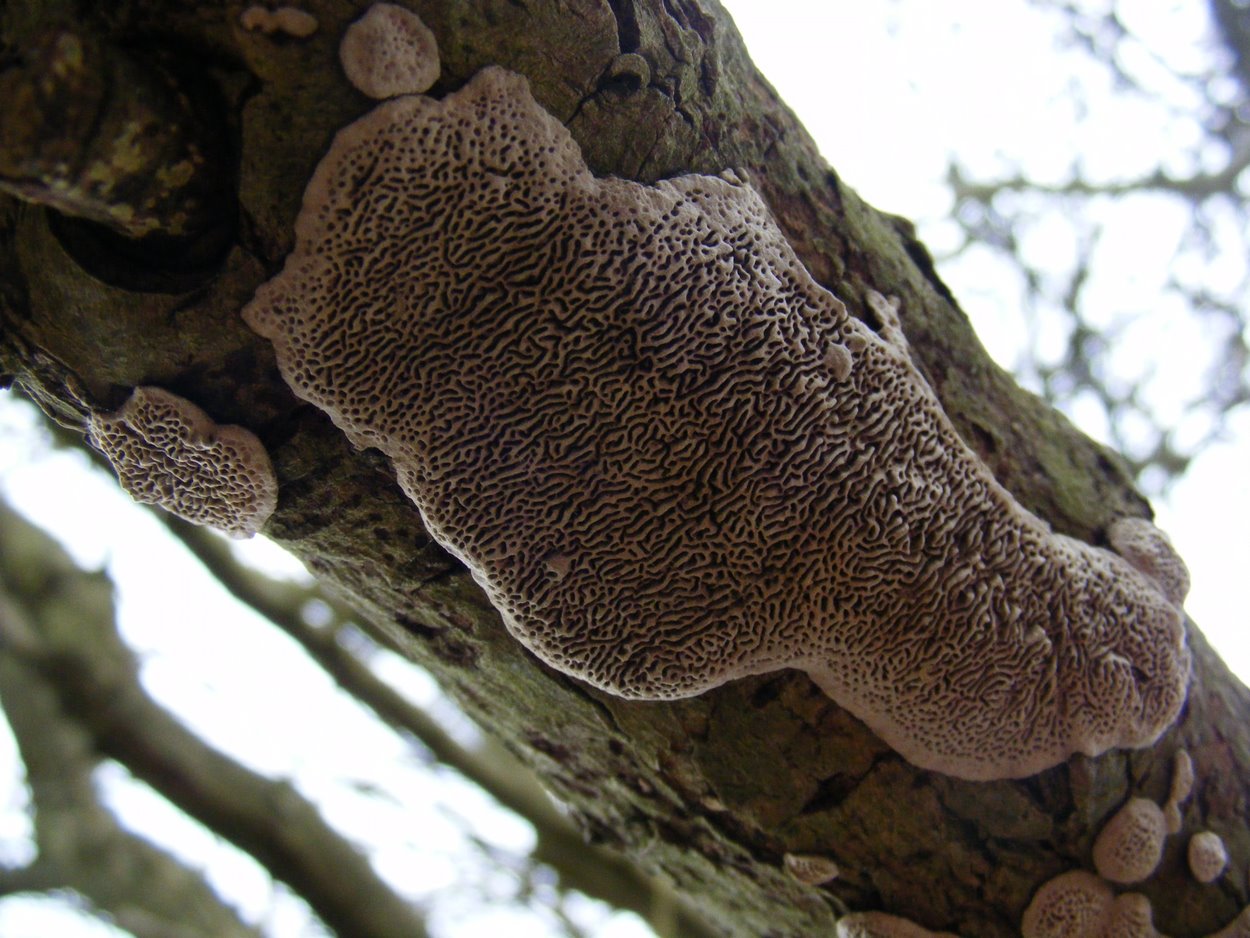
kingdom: Fungi
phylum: Basidiomycota
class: Agaricomycetes
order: Polyporales
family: Polyporaceae
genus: Podofomes
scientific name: Podofomes mollis
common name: blød begporesvamp
